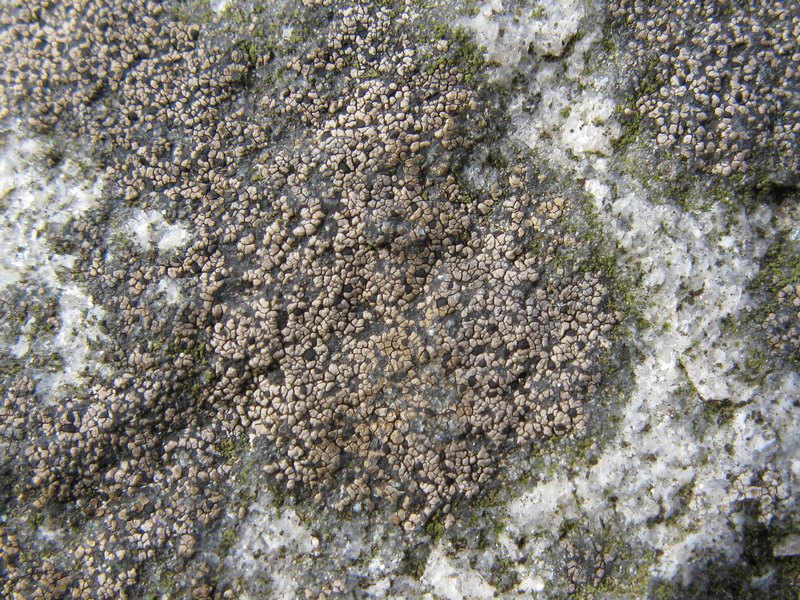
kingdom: Fungi
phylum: Ascomycota
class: Lecanoromycetes
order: Rhizocarpales
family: Rhizocarpaceae
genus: Rhizocarpon
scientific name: Rhizocarpon geminatum
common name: tosporet landkortlav
